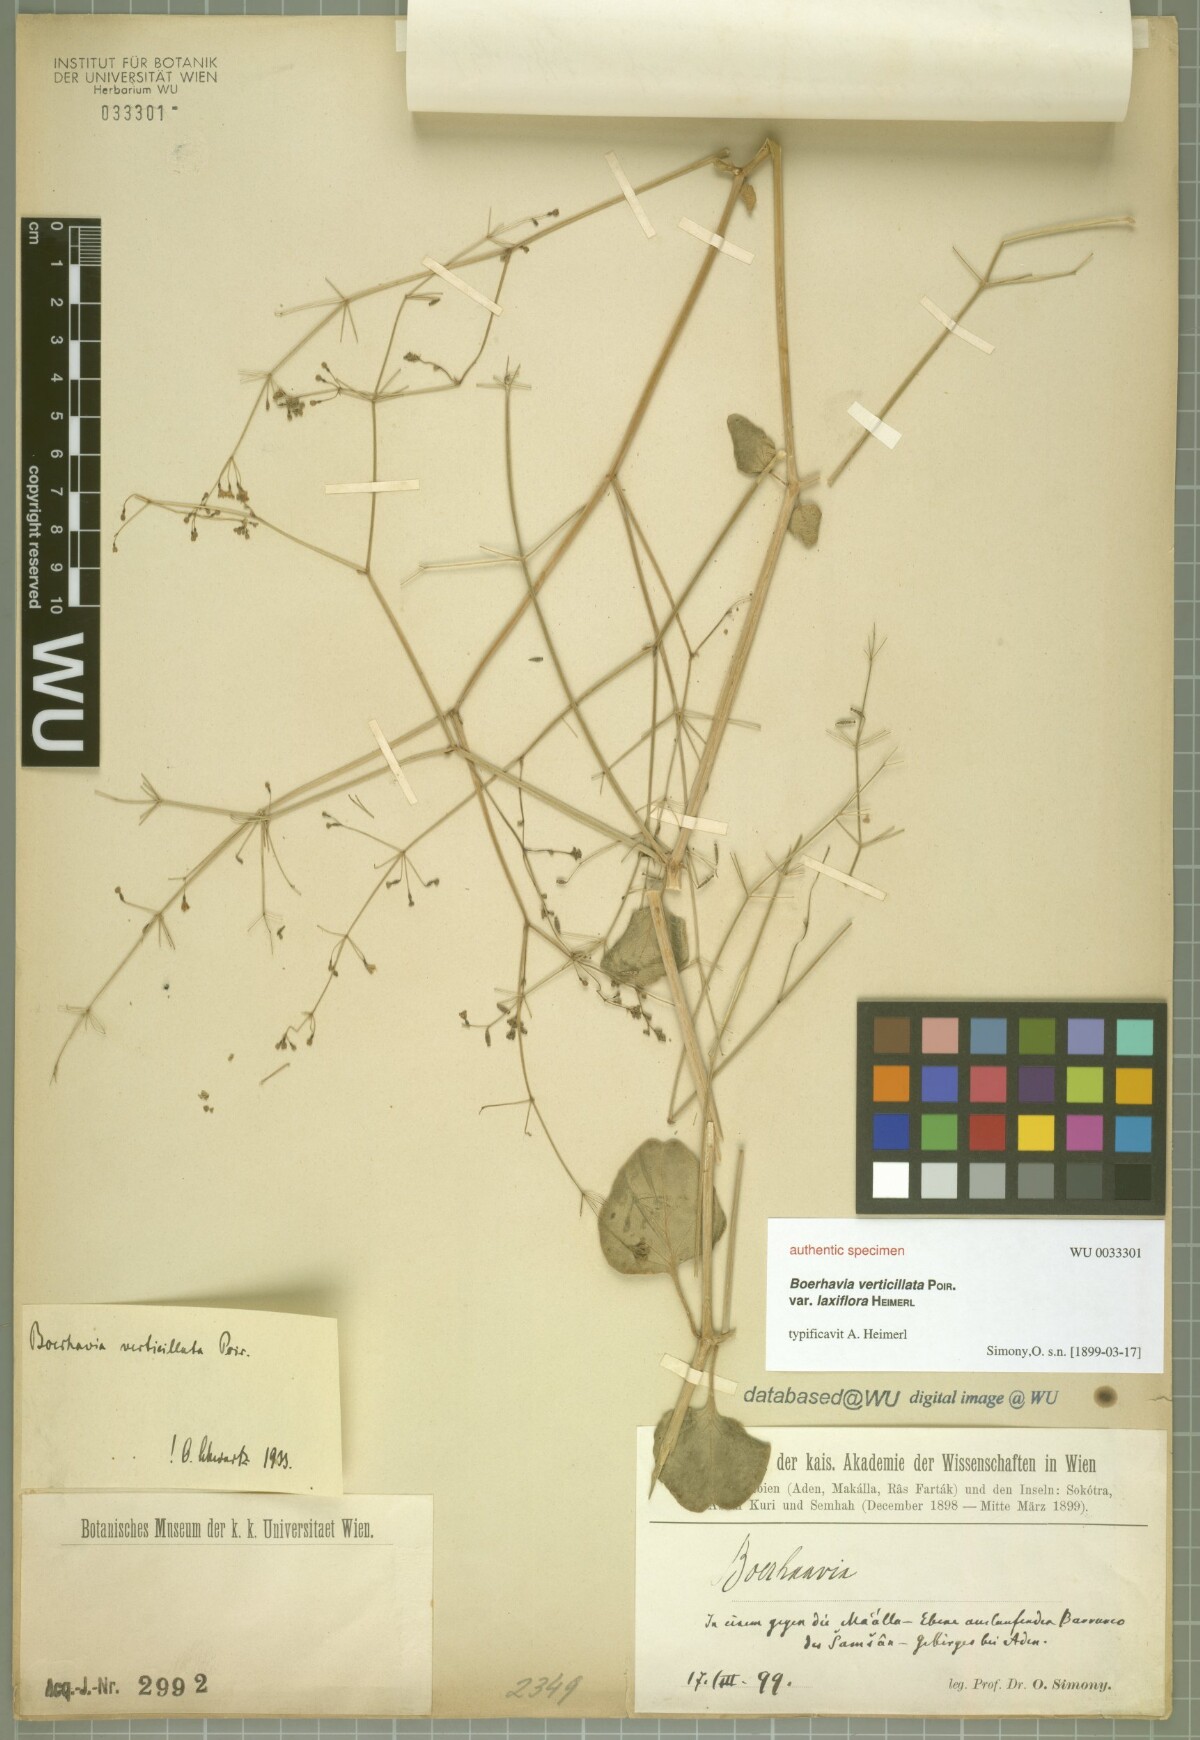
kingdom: Plantae
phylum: Tracheophyta
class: Magnoliopsida
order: Caryophyllales
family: Nyctaginaceae
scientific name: Nyctaginaceae
